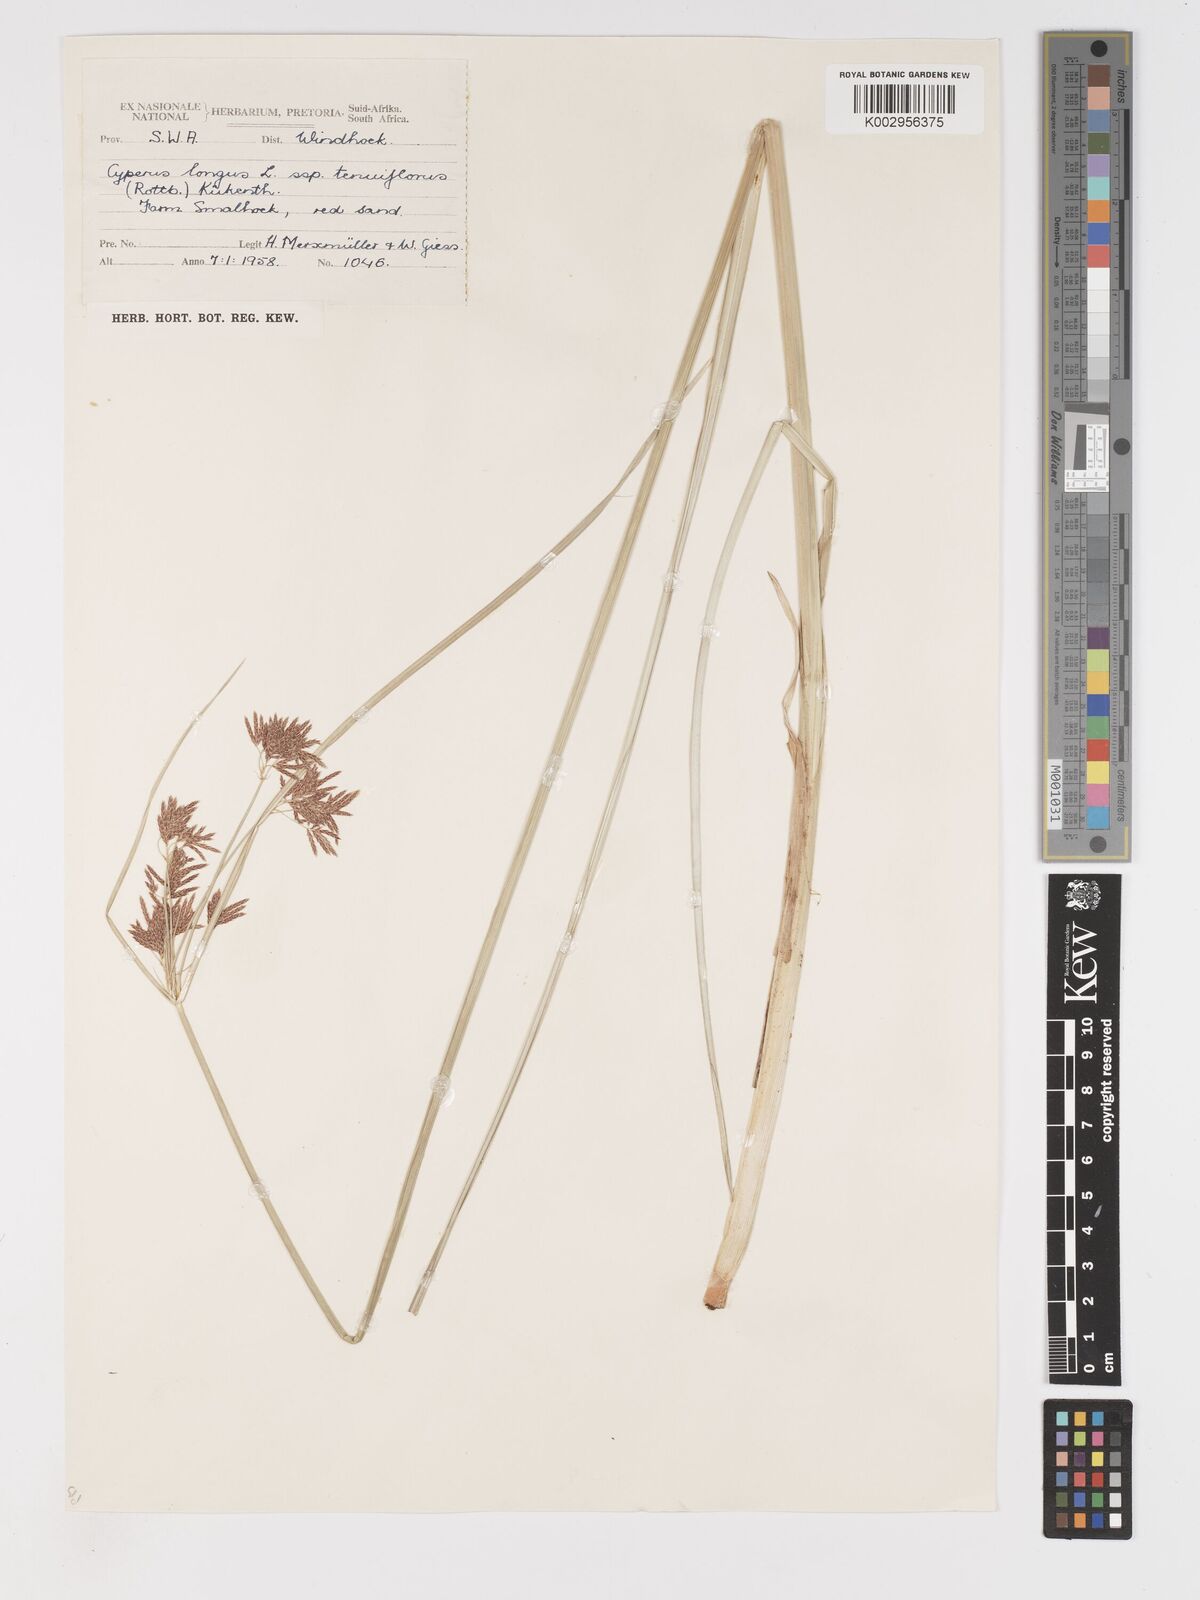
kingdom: Plantae
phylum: Tracheophyta
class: Liliopsida
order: Poales
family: Cyperaceae
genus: Cyperus
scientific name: Cyperus longus
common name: Galingale
